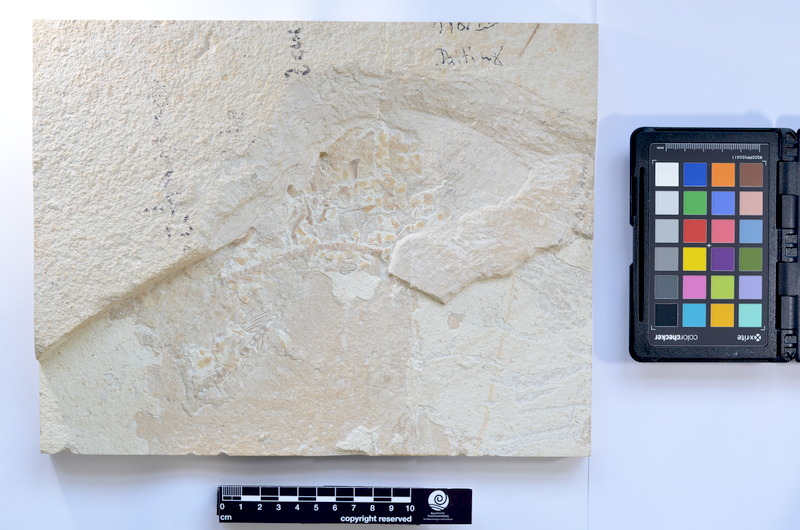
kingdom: Animalia
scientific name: Animalia
